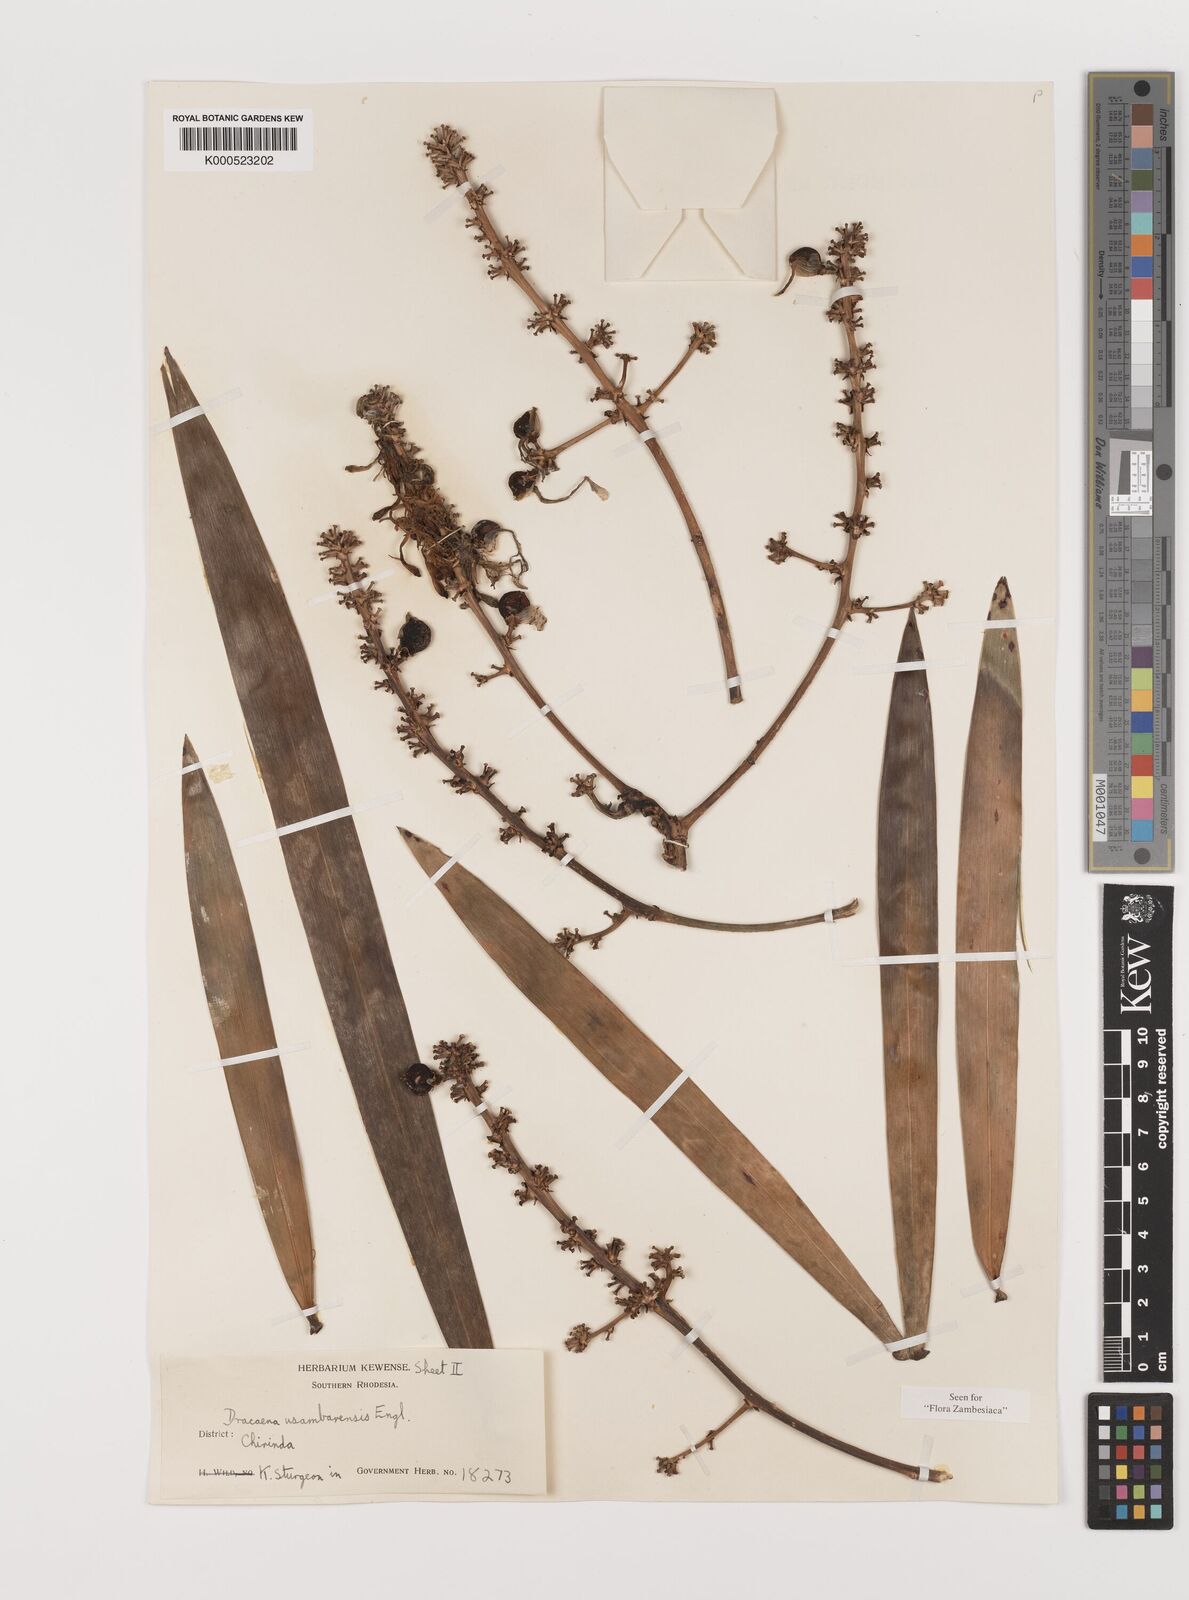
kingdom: Plantae
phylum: Tracheophyta
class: Liliopsida
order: Asparagales
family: Asparagaceae
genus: Dracaena
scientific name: Dracaena usambarensis
